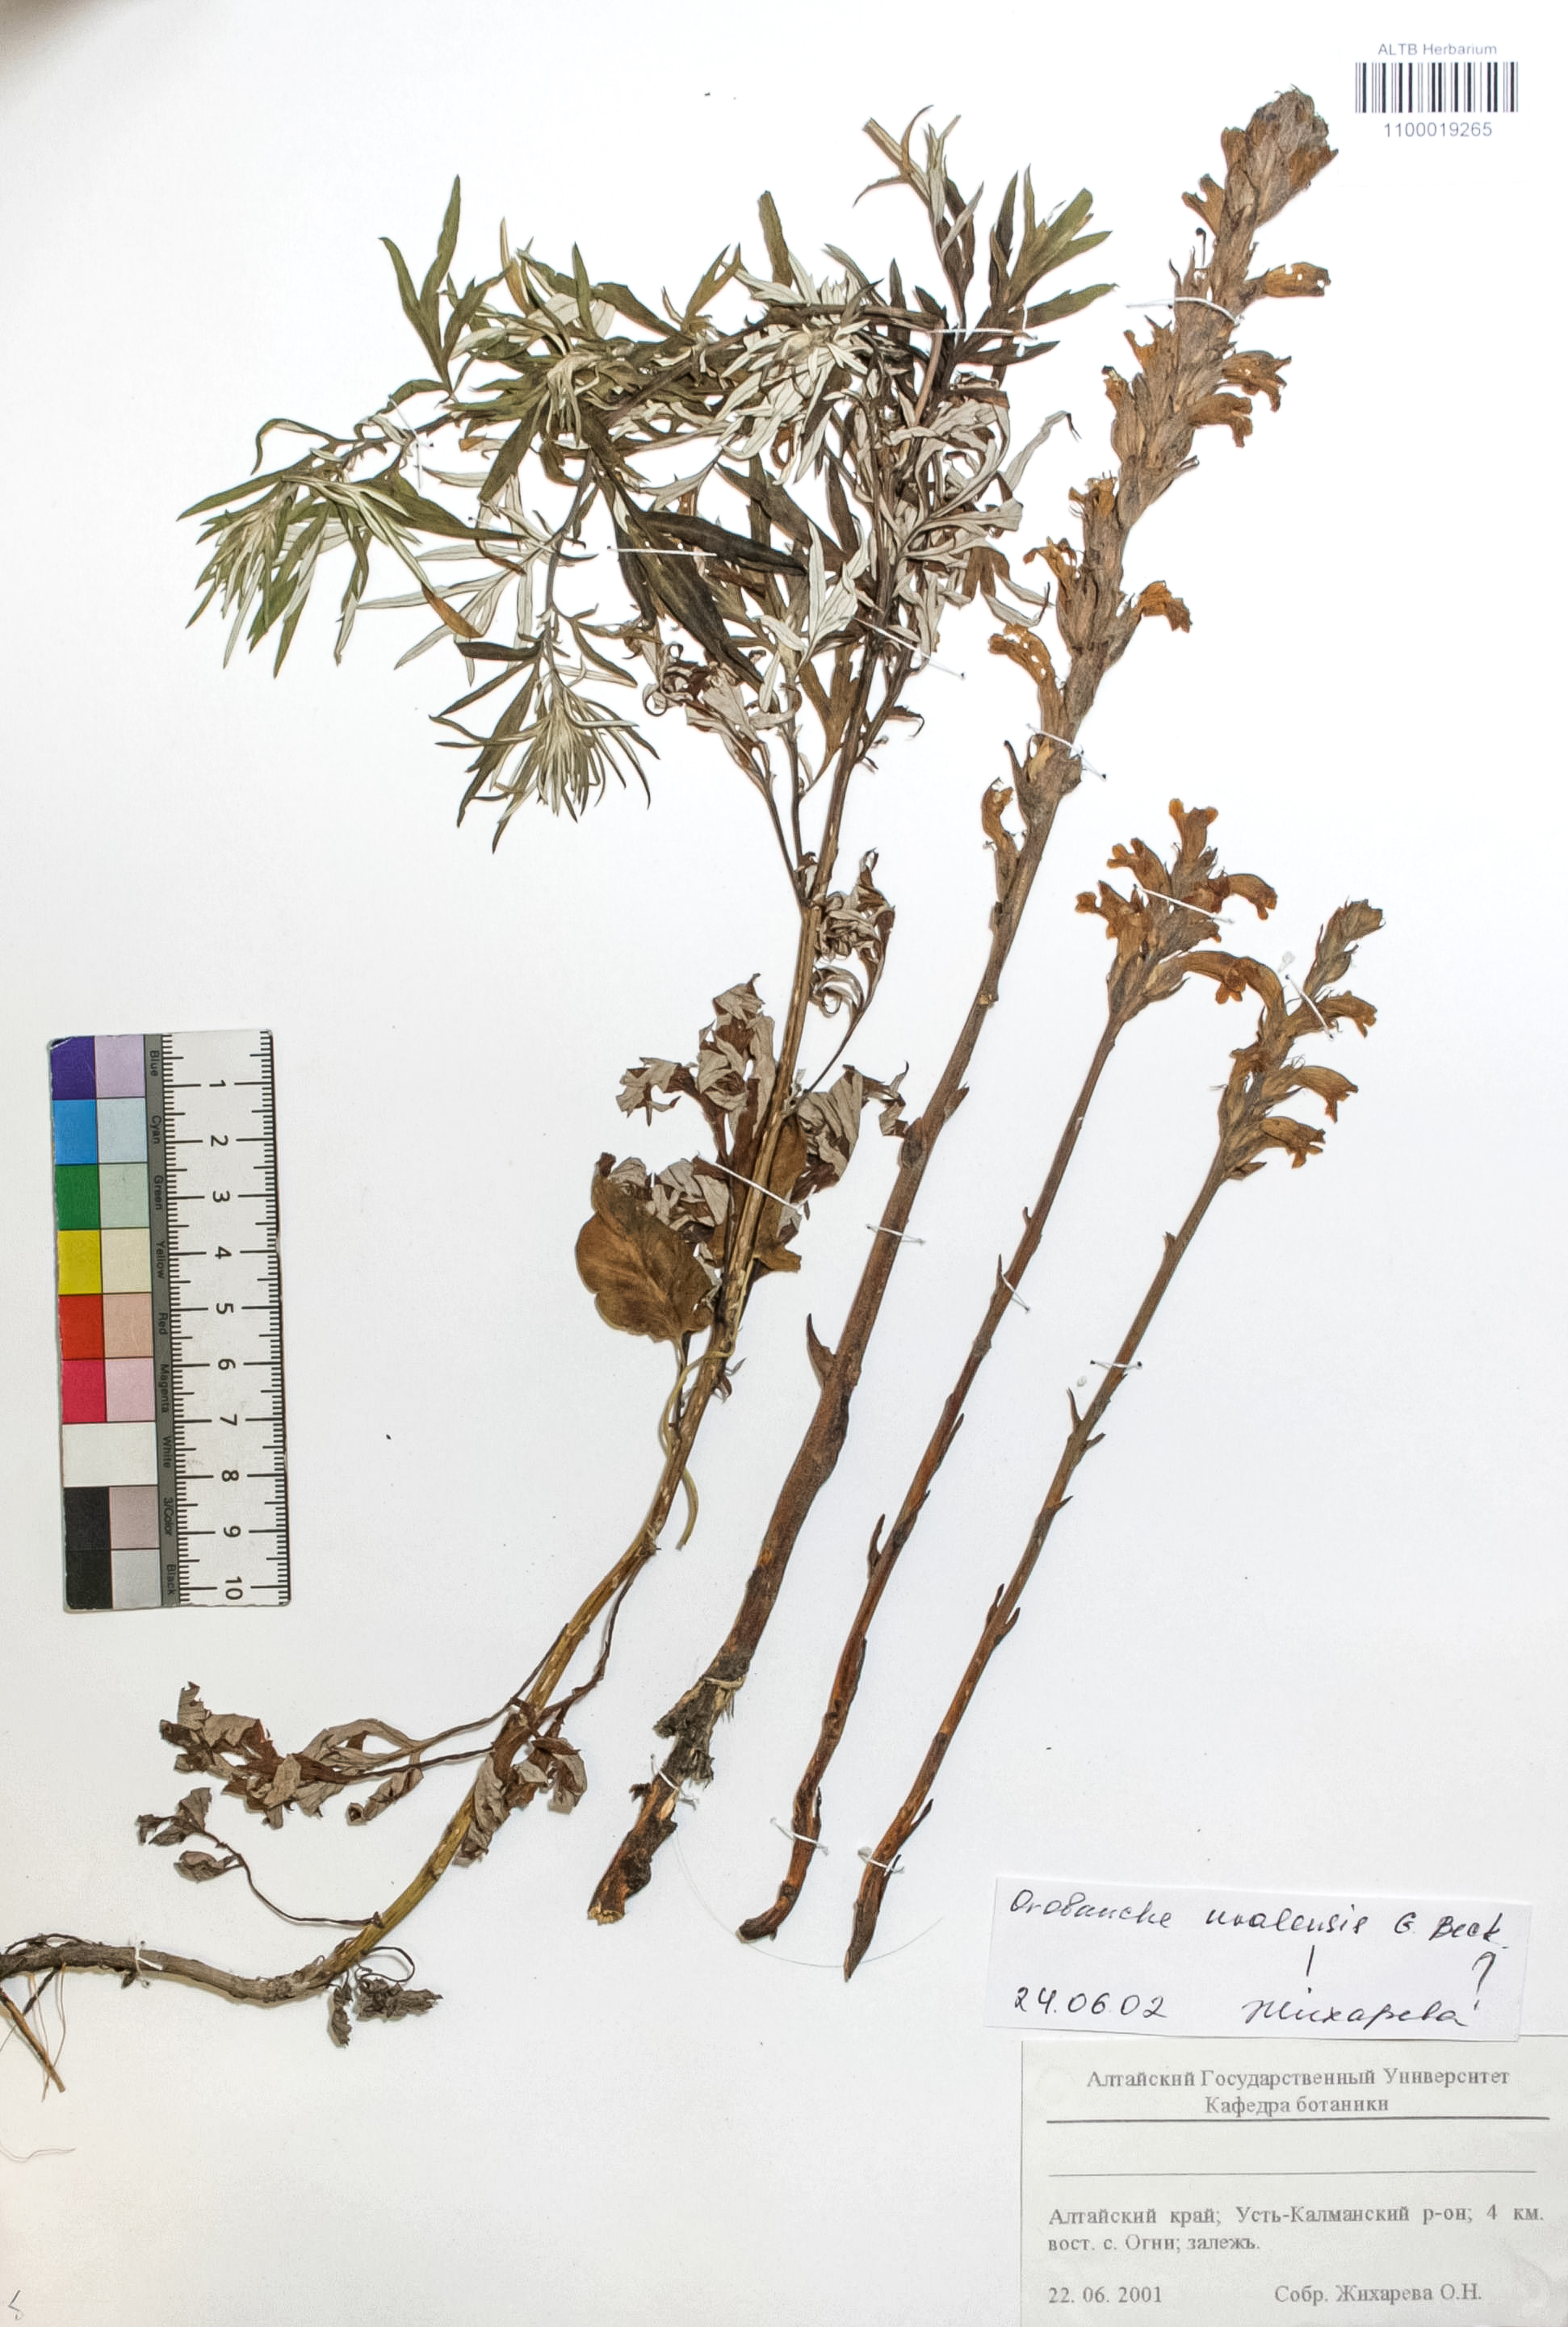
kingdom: Plantae
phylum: Tracheophyta
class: Magnoliopsida
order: Lamiales
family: Orobanchaceae
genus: Phelipanche
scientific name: Phelipanche pallens
